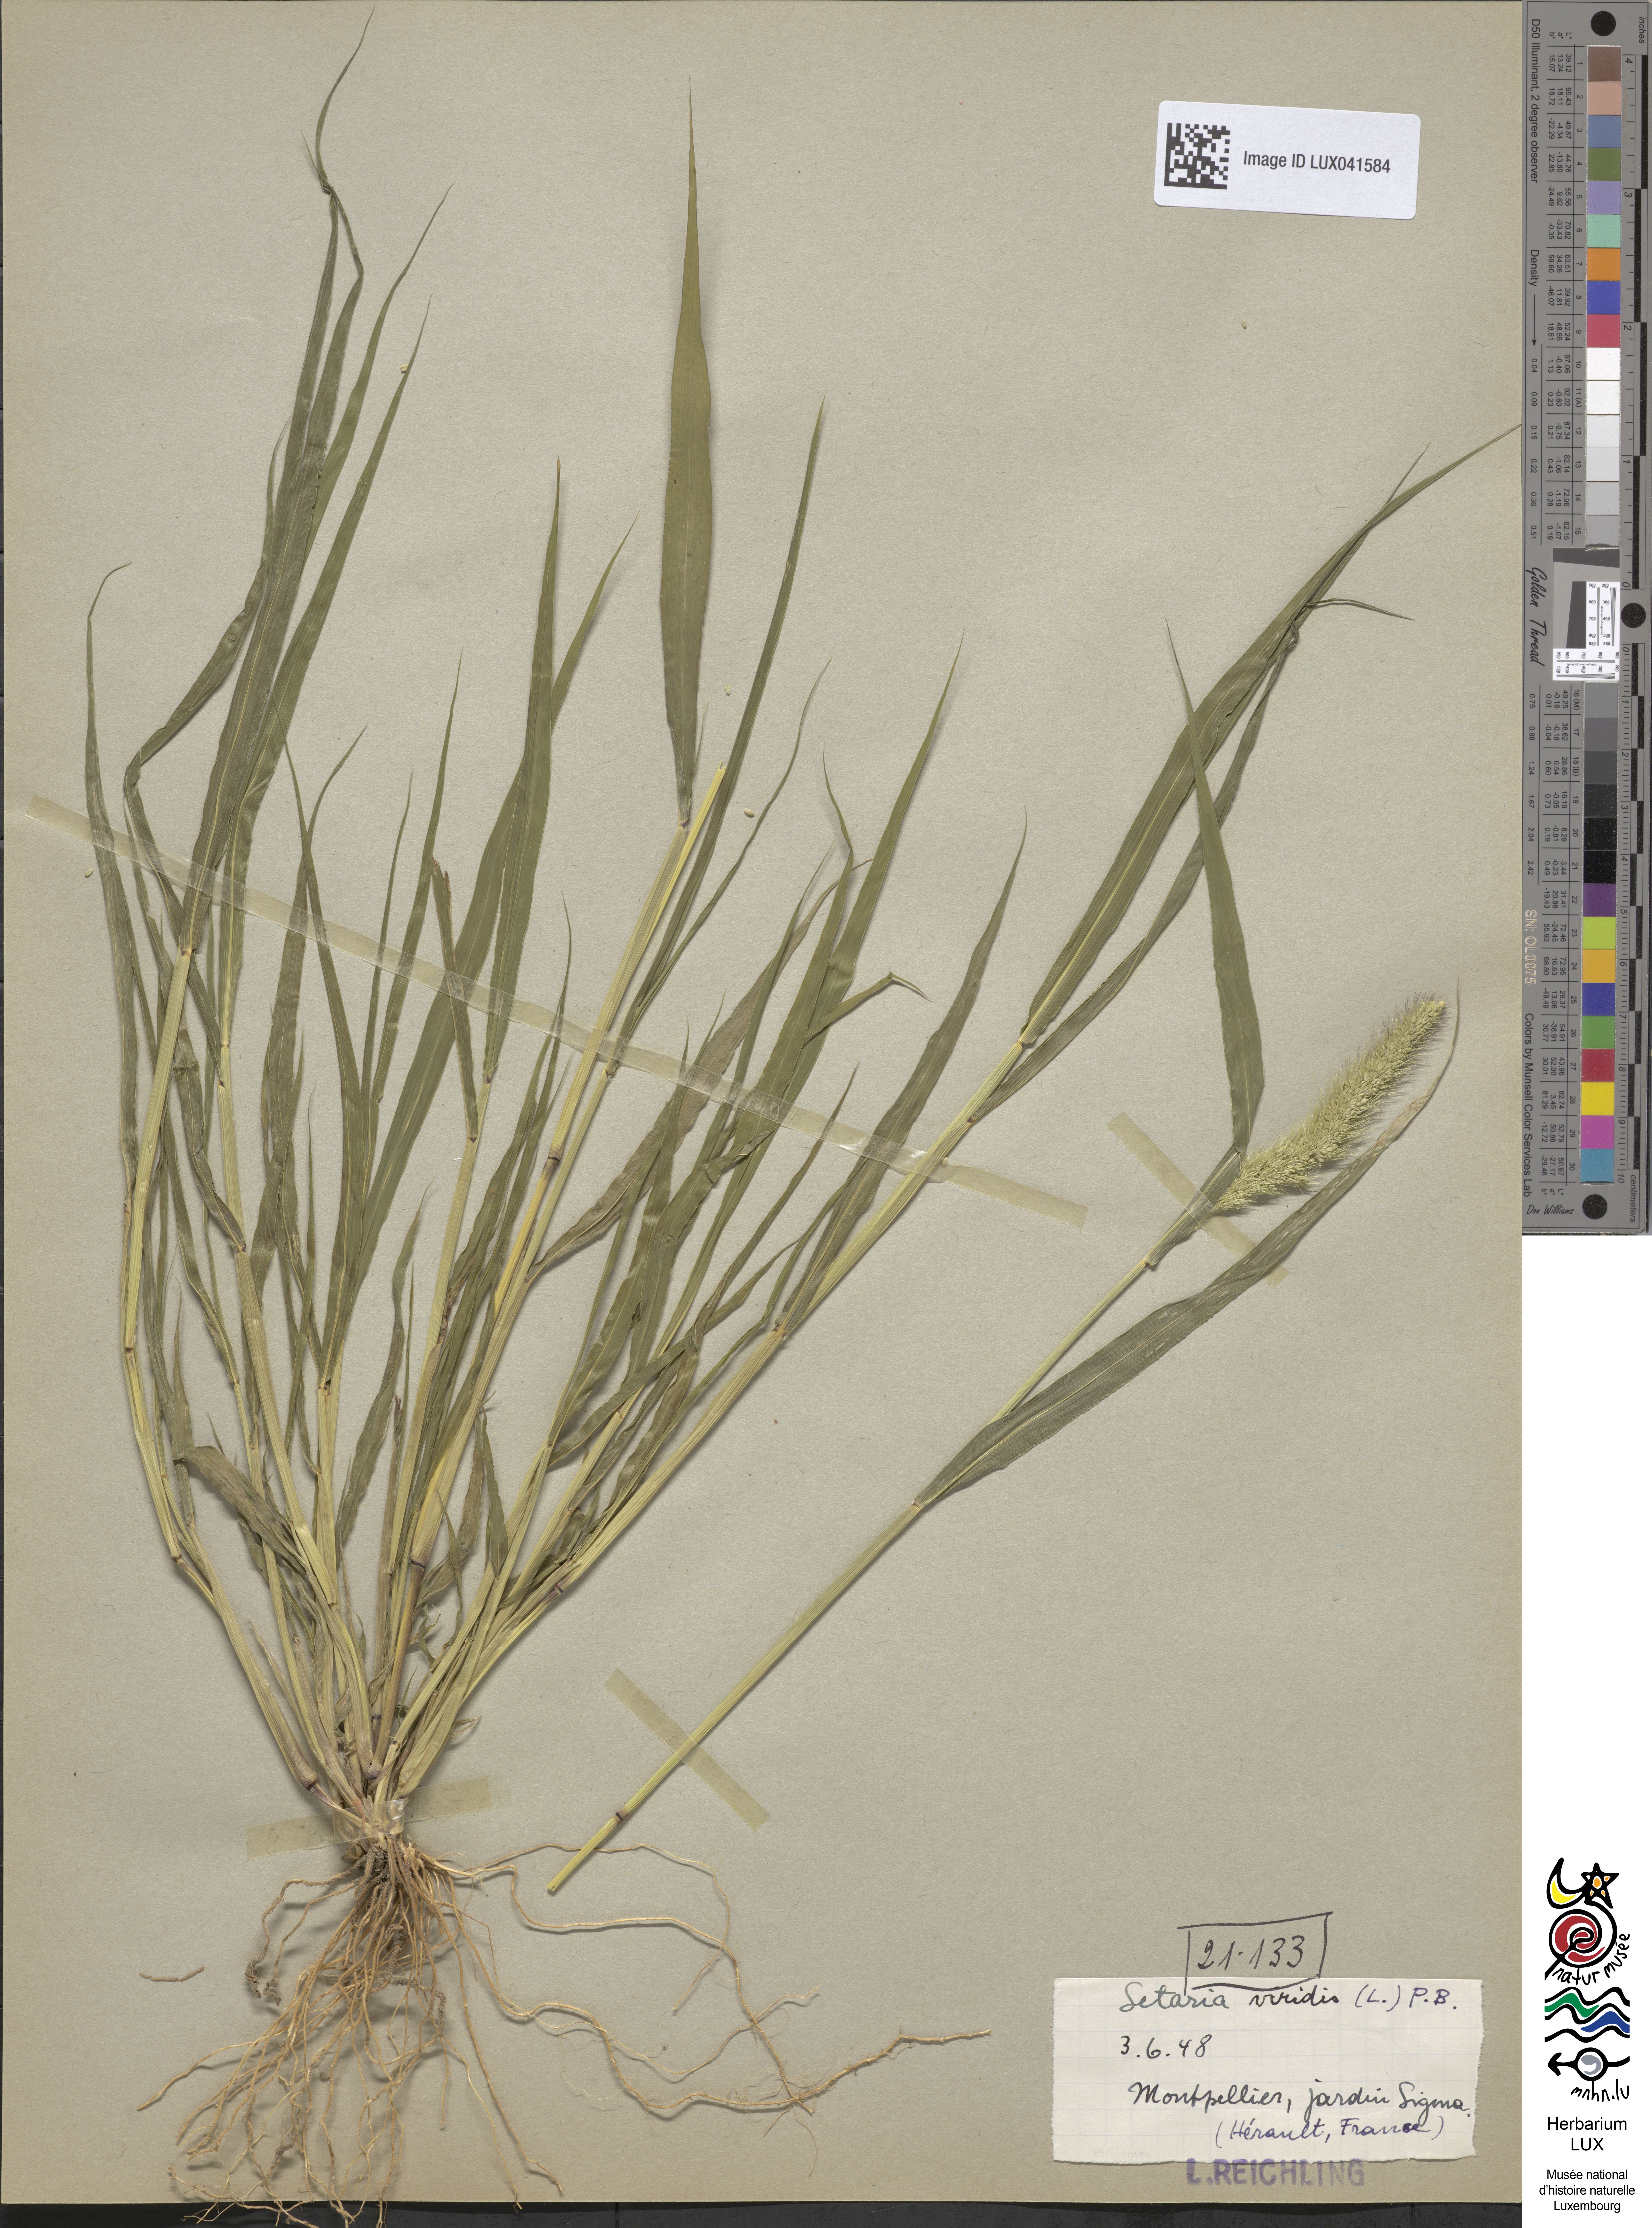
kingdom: Plantae
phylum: Tracheophyta
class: Liliopsida
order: Poales
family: Poaceae
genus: Setaria
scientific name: Setaria viridis
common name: Green bristlegrass
